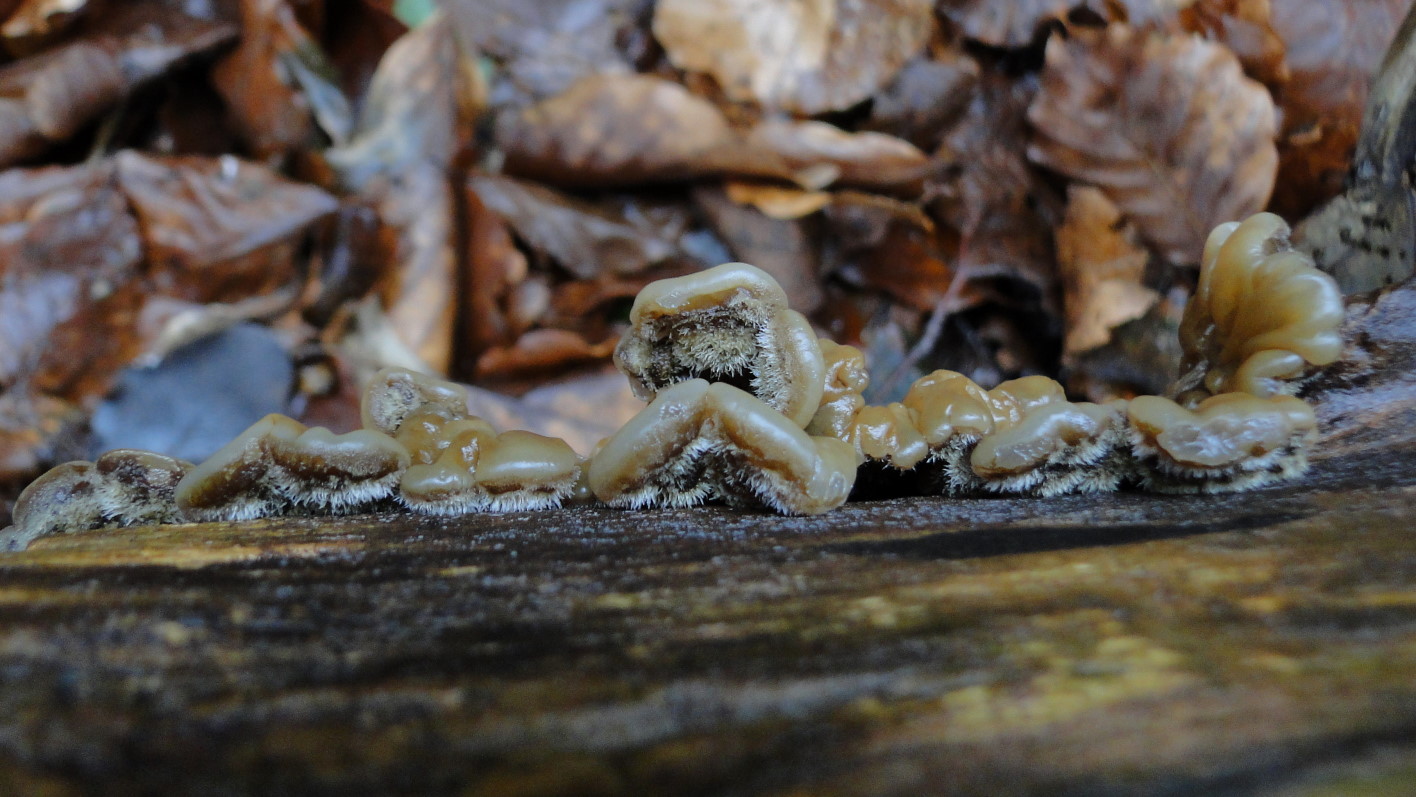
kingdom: Fungi
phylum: Basidiomycota
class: Agaricomycetes
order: Auriculariales
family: Auriculariaceae
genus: Auricularia
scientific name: Auricularia mesenterica
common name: håret judasøre
